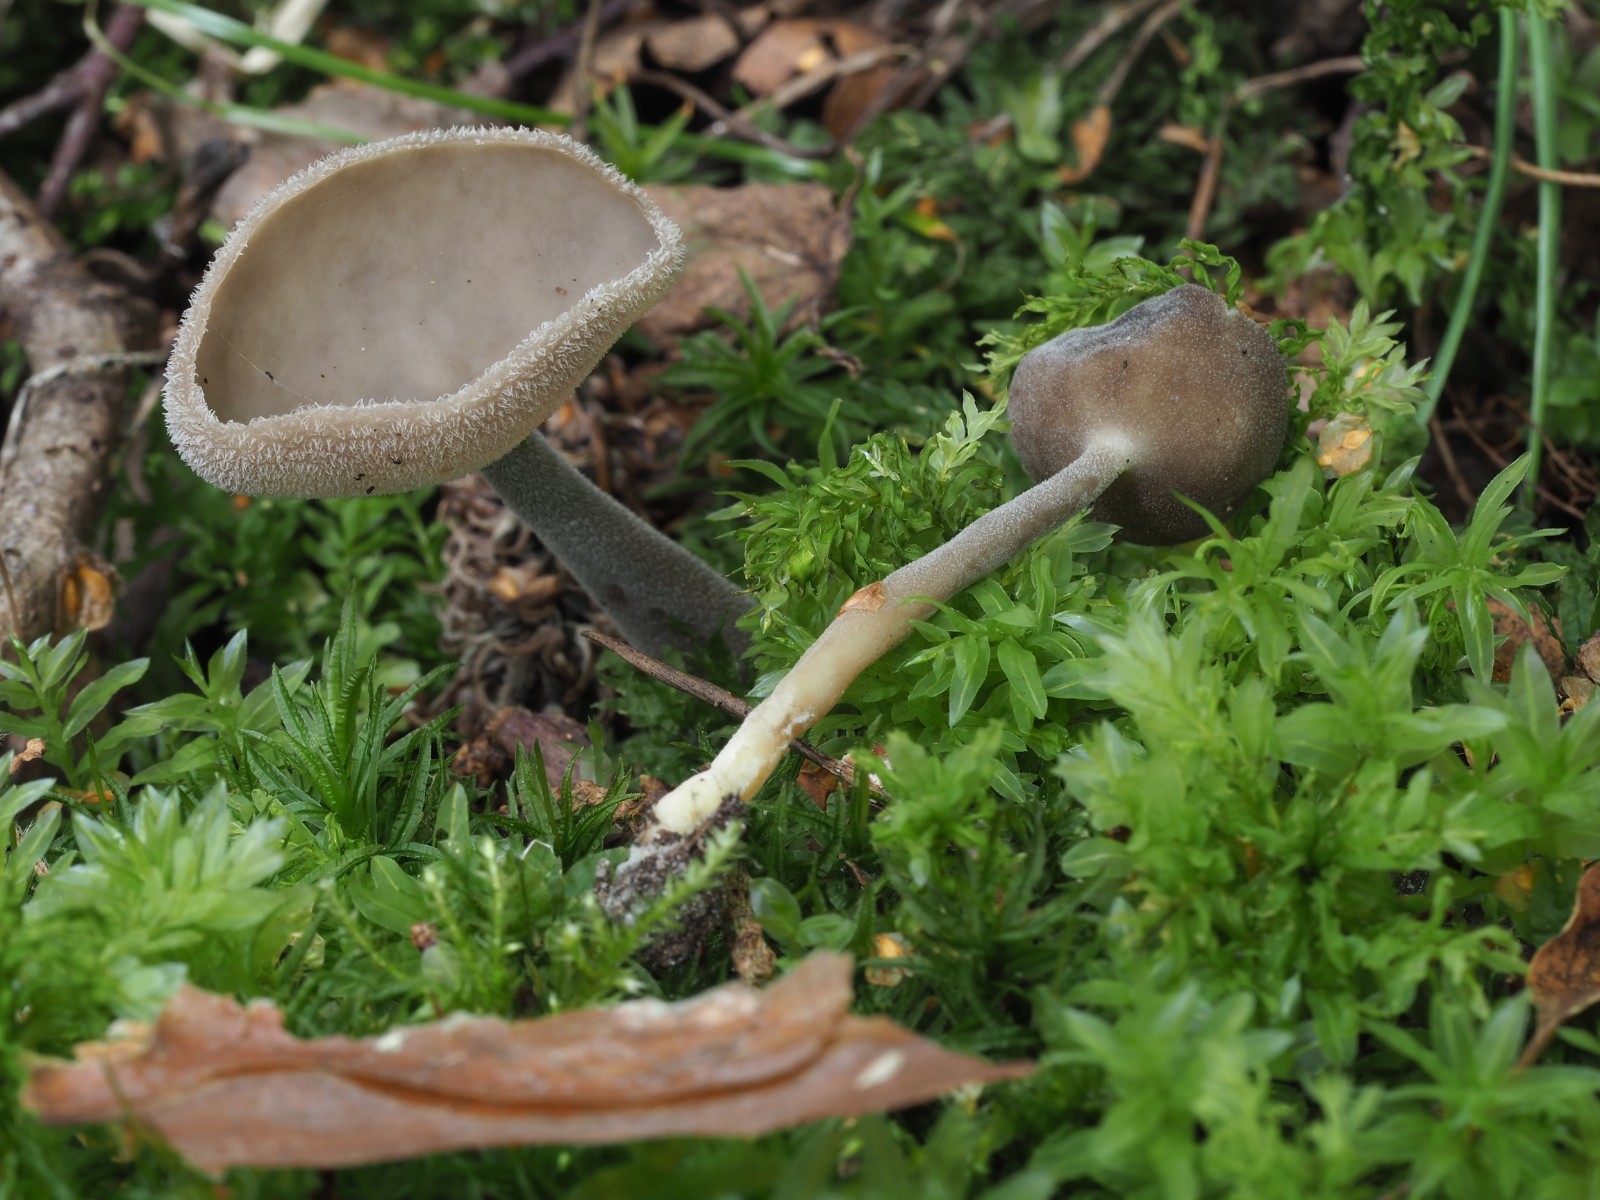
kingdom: Fungi
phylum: Ascomycota
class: Pezizomycetes
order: Pezizales
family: Helvellaceae
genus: Helvella
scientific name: Helvella fibrosa
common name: dunstokket foldhat
